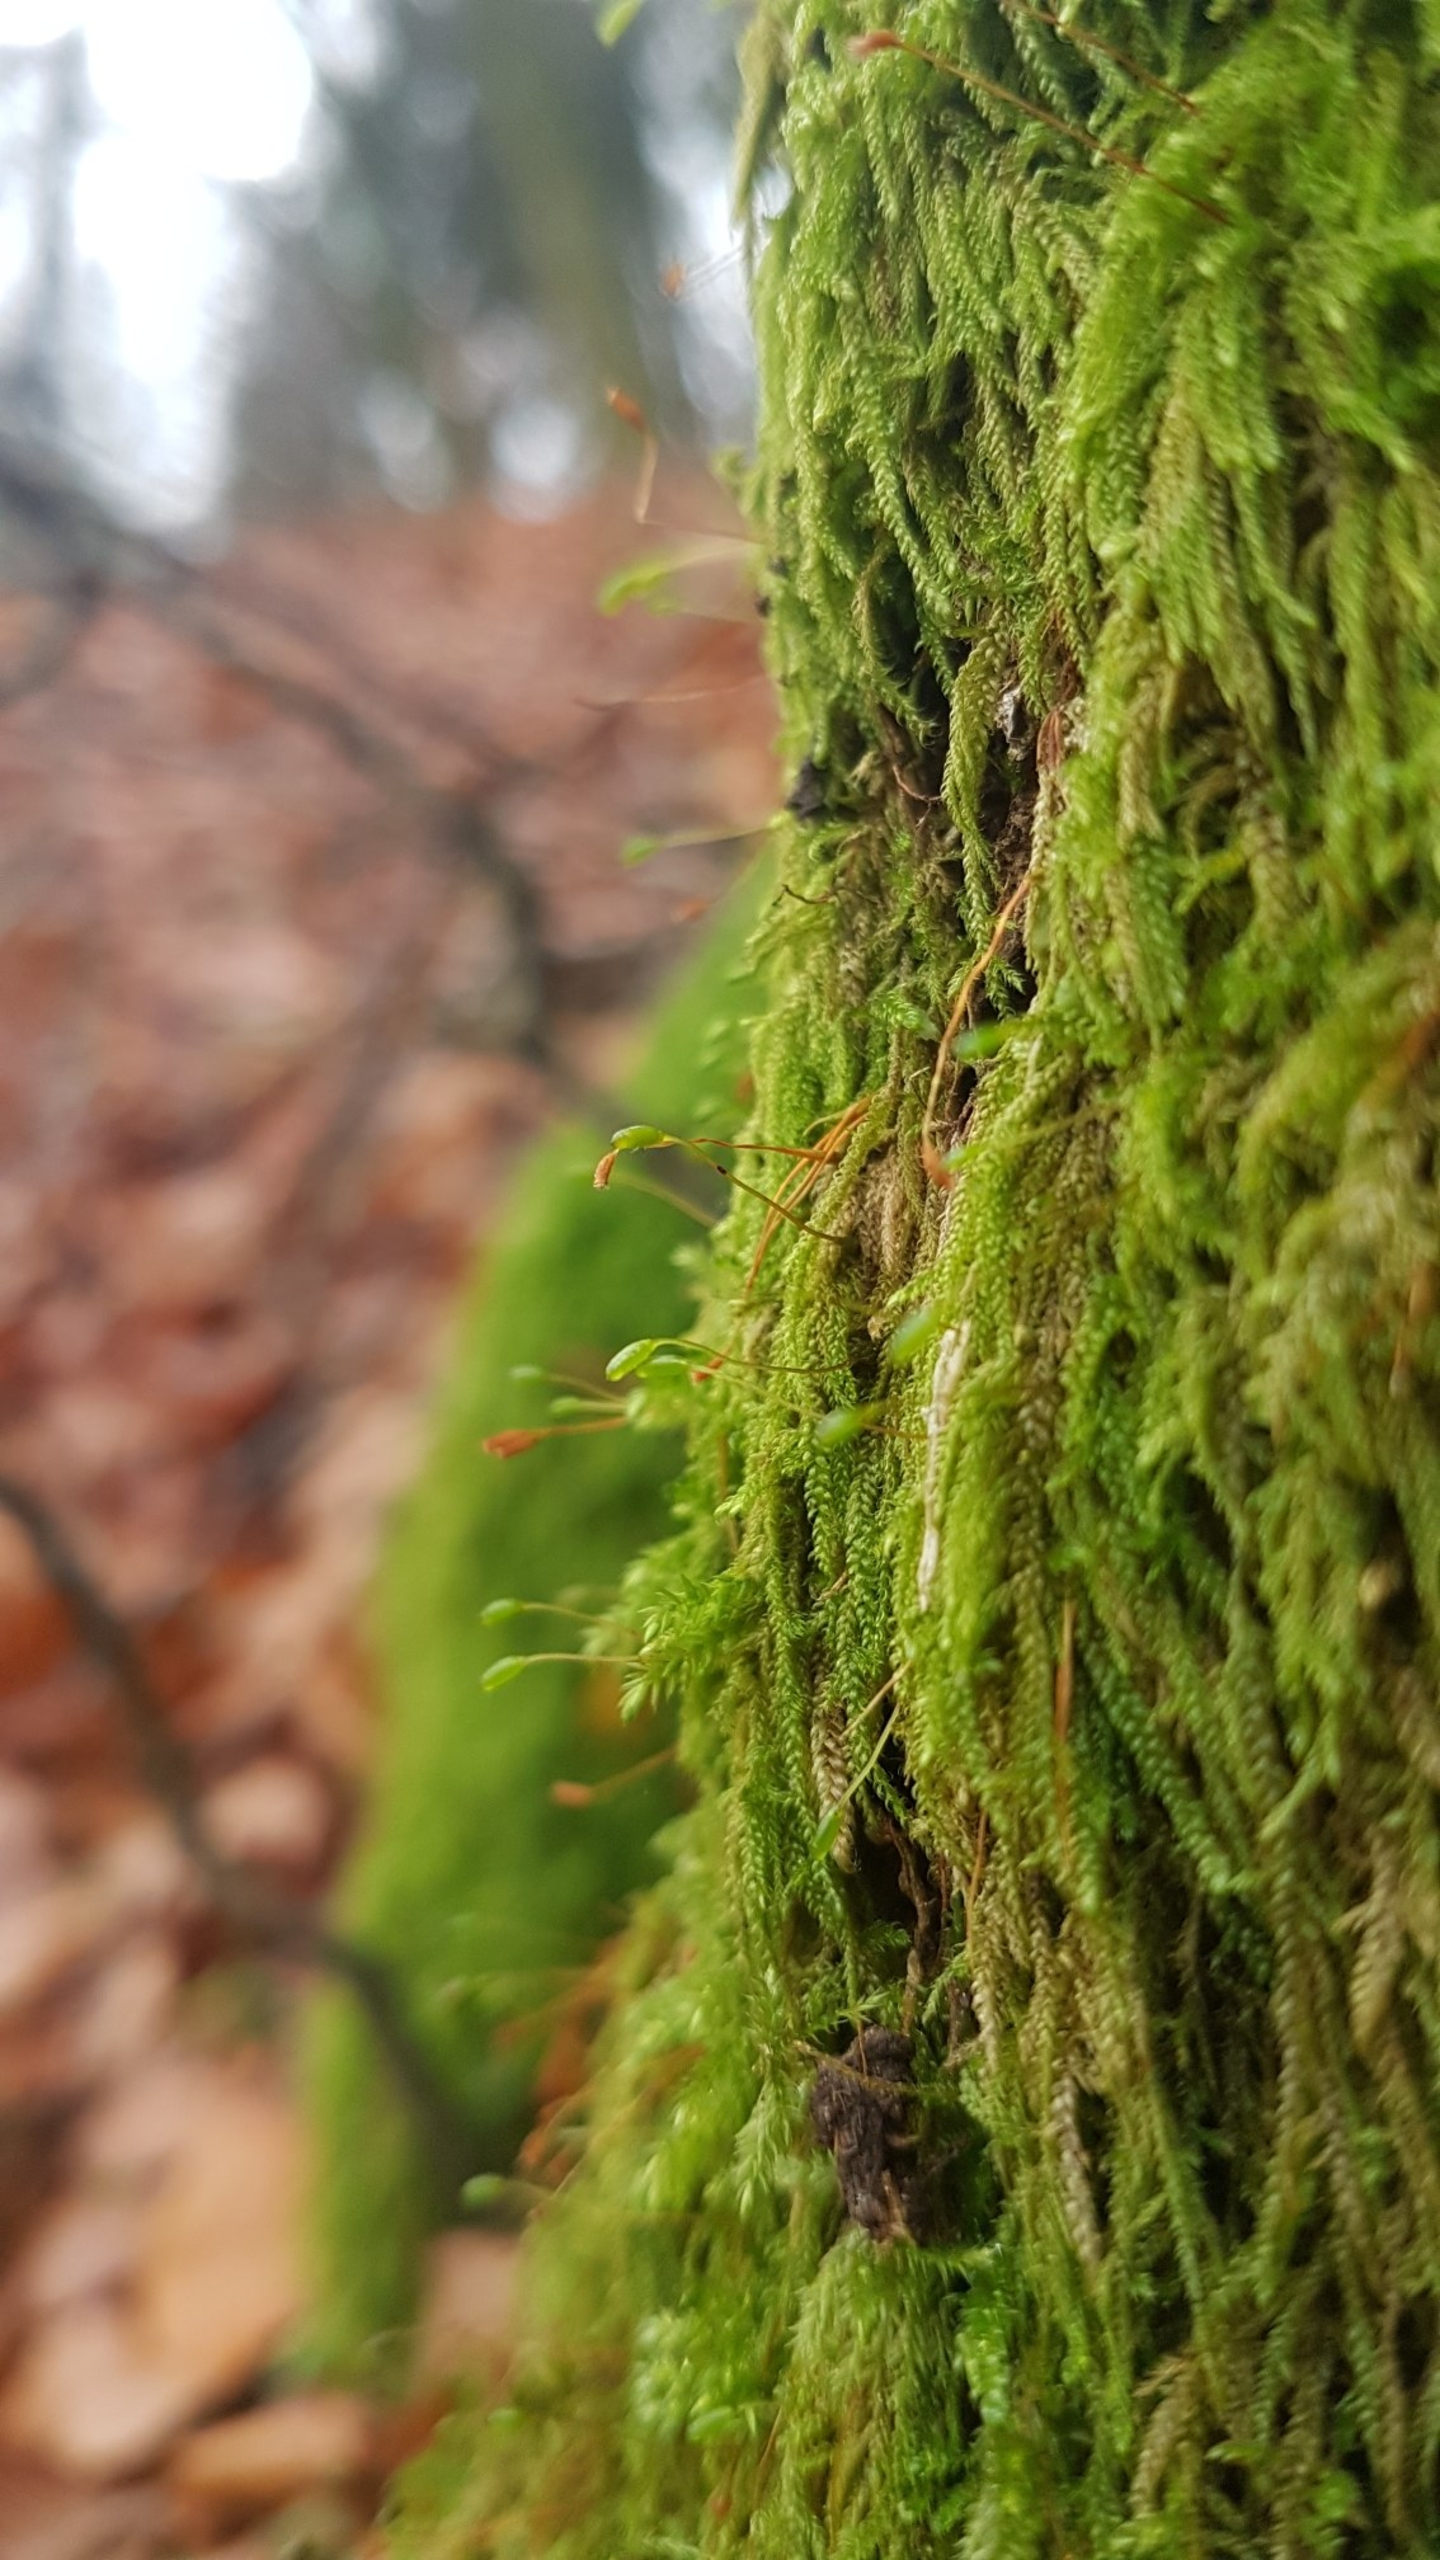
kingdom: Plantae
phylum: Bryophyta
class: Bryopsida
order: Hypnales
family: Hypnaceae
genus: Hypnum
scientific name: Hypnum andoi
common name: Vortet cypresmos
